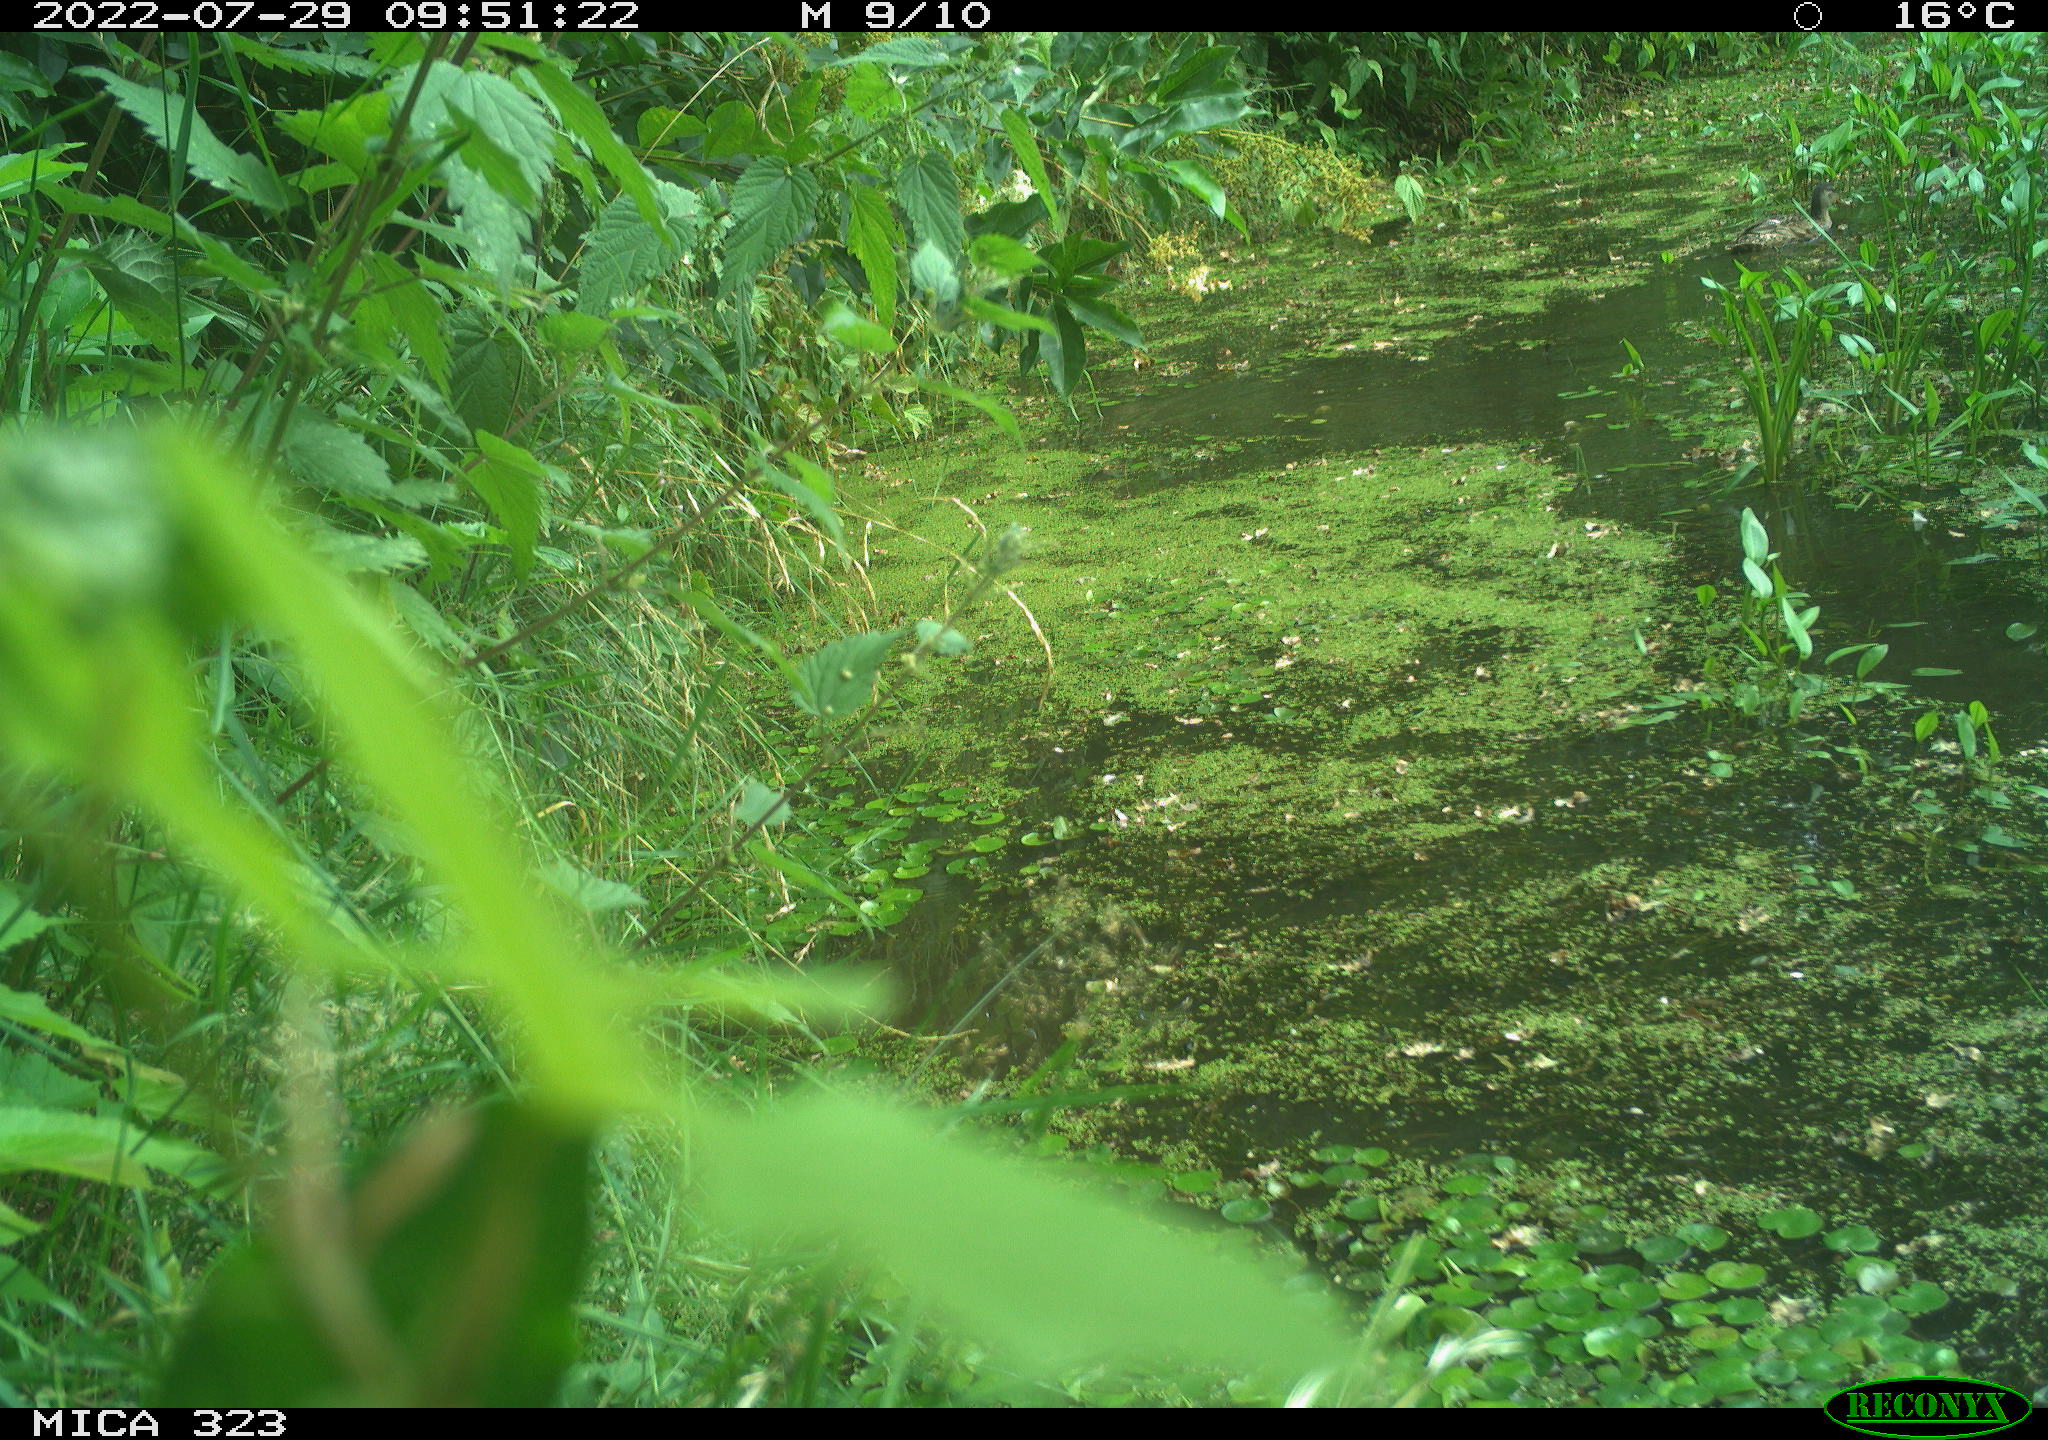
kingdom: Animalia
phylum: Chordata
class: Aves
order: Anseriformes
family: Anatidae
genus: Anas
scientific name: Anas platyrhynchos
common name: Mallard
